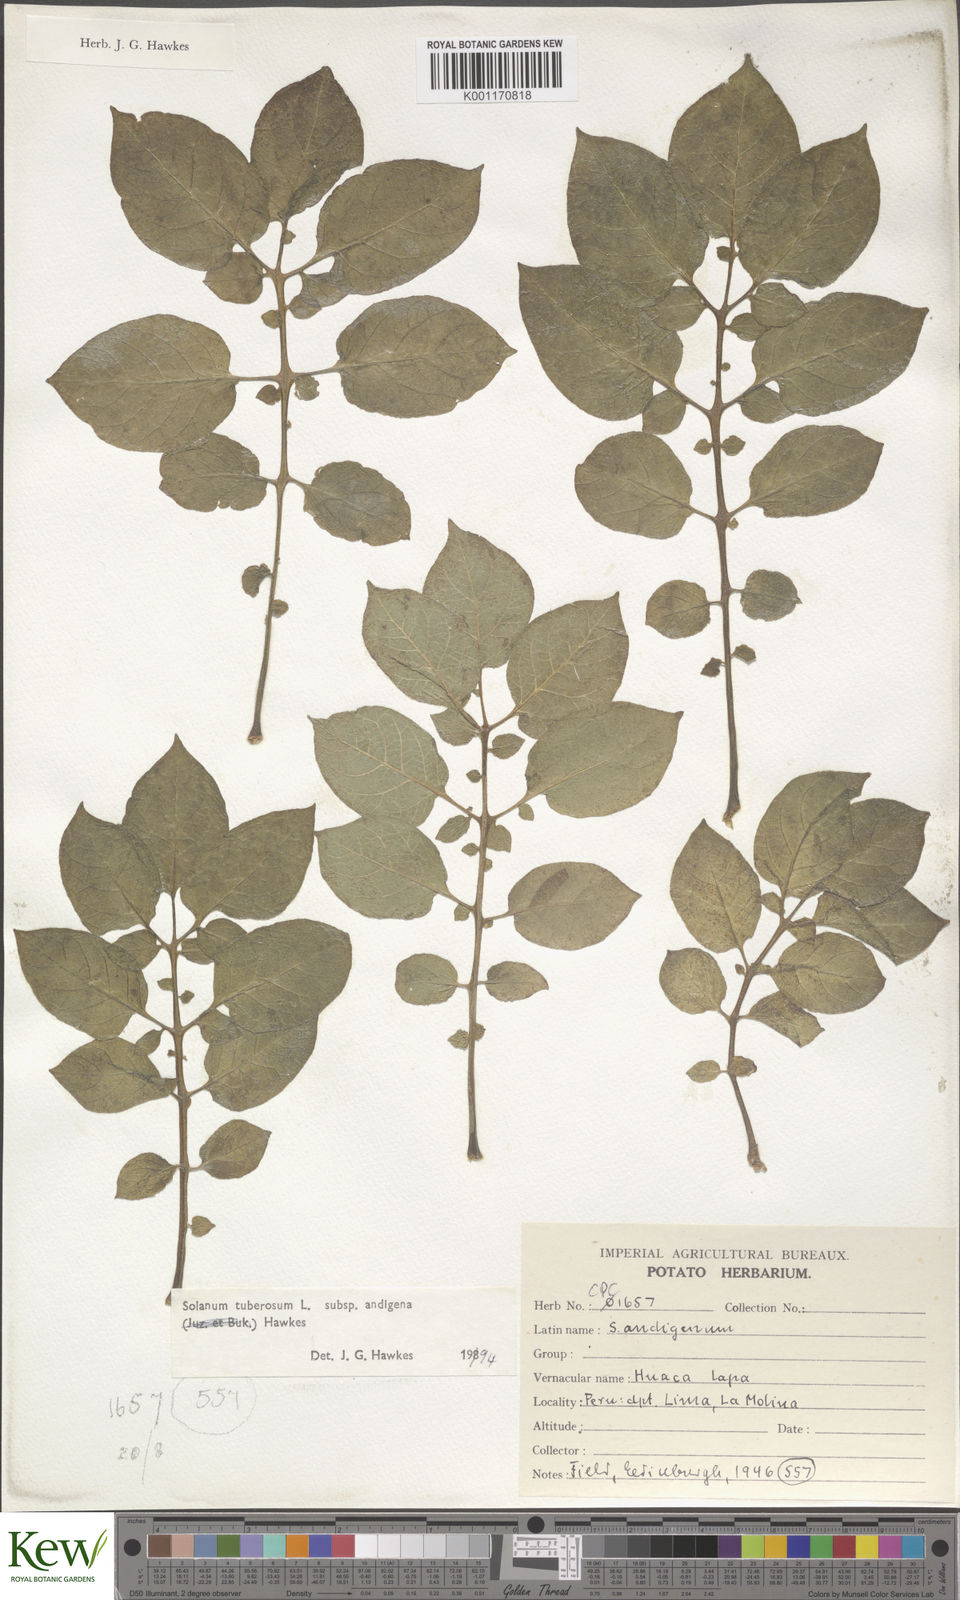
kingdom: Plantae
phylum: Tracheophyta
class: Magnoliopsida
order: Solanales
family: Solanaceae
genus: Solanum
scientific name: Solanum tuberosum
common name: Potato
